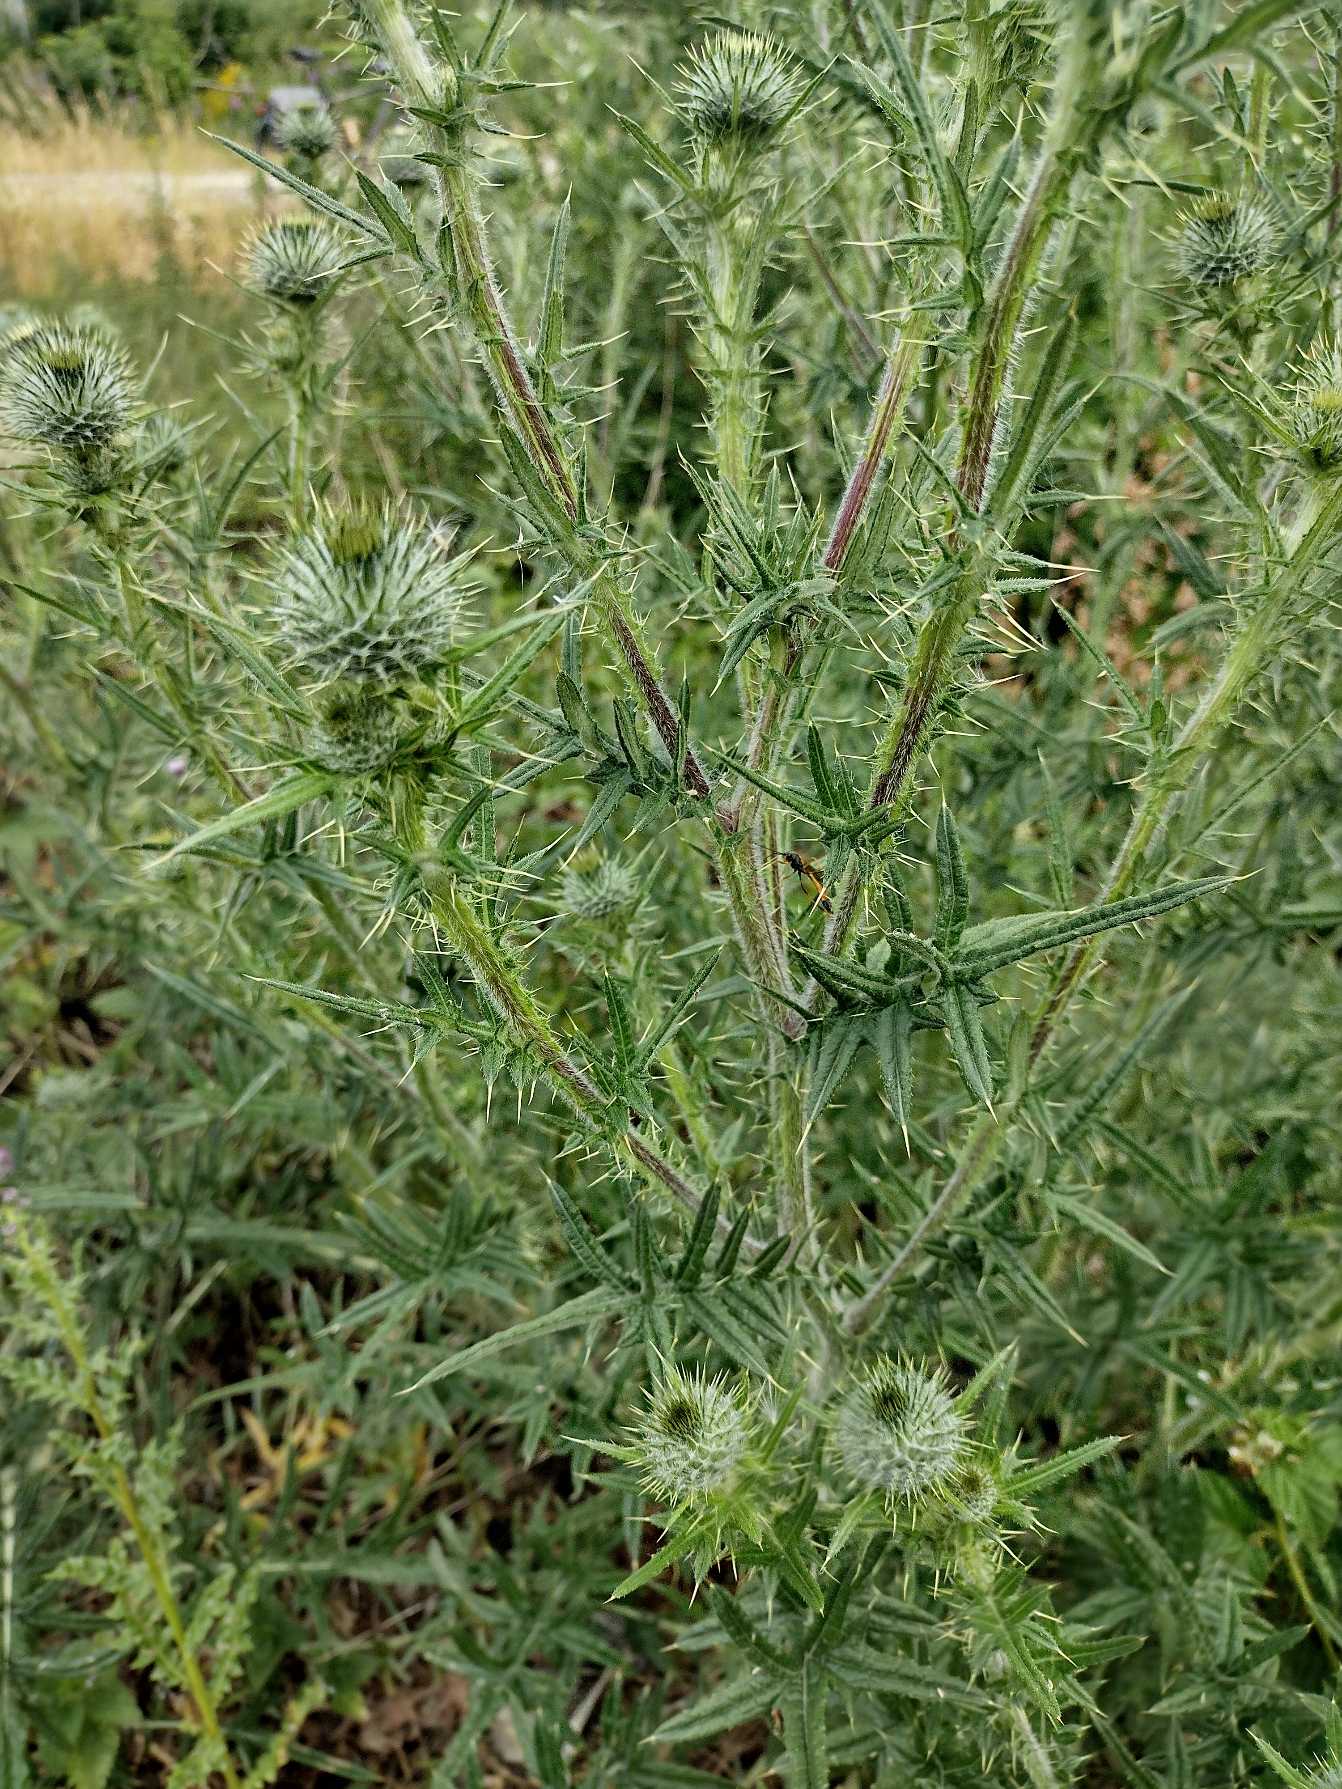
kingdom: Plantae
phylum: Tracheophyta
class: Magnoliopsida
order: Asterales
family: Asteraceae
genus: Cirsium
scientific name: Cirsium vulgare
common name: Horse-tidsel
